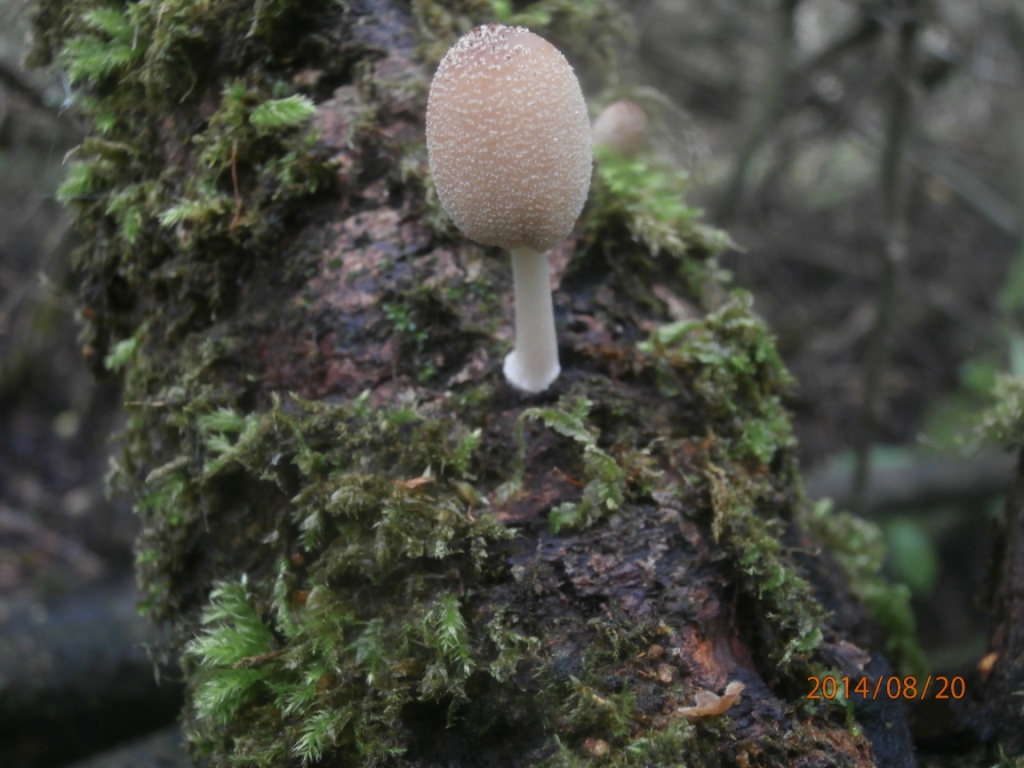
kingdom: Fungi
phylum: Basidiomycota
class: Agaricomycetes
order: Agaricales
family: Psathyrellaceae
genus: Coprinellus
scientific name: Coprinellus radians
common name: grynet blækhat
